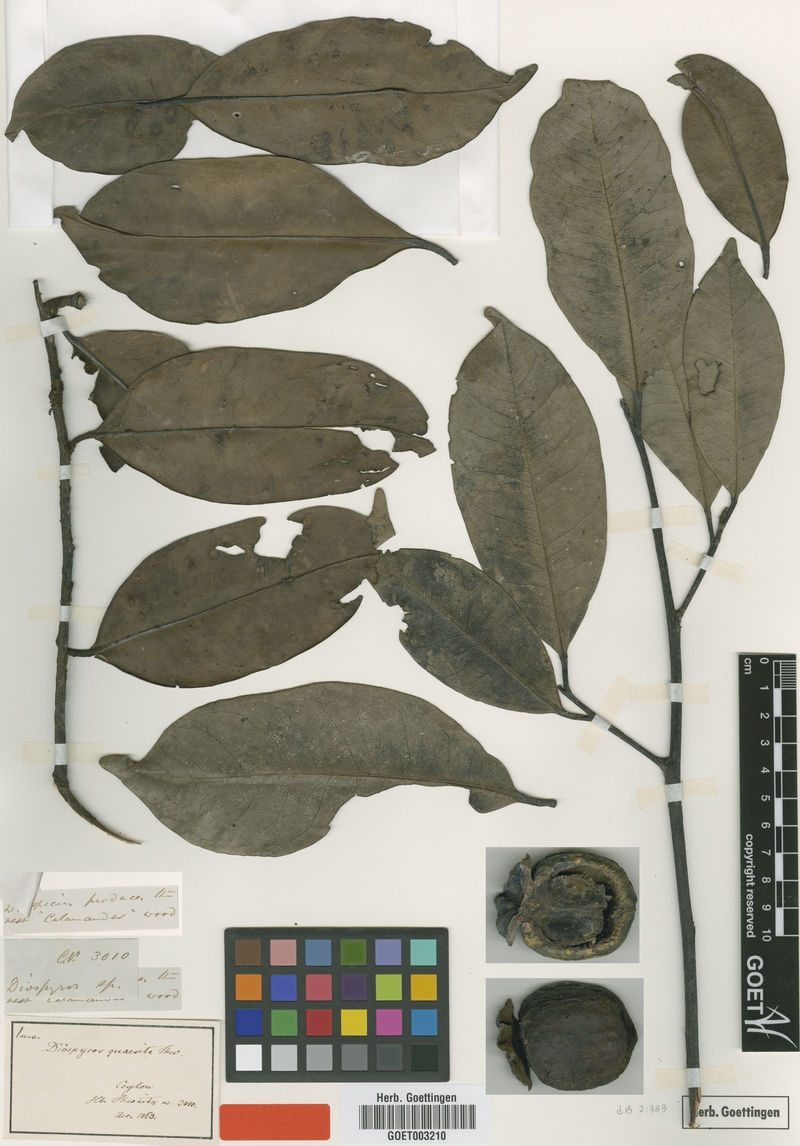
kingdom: Plantae
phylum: Tracheophyta
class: Magnoliopsida
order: Ericales
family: Ebenaceae
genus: Diospyros
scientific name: Diospyros quaesita
